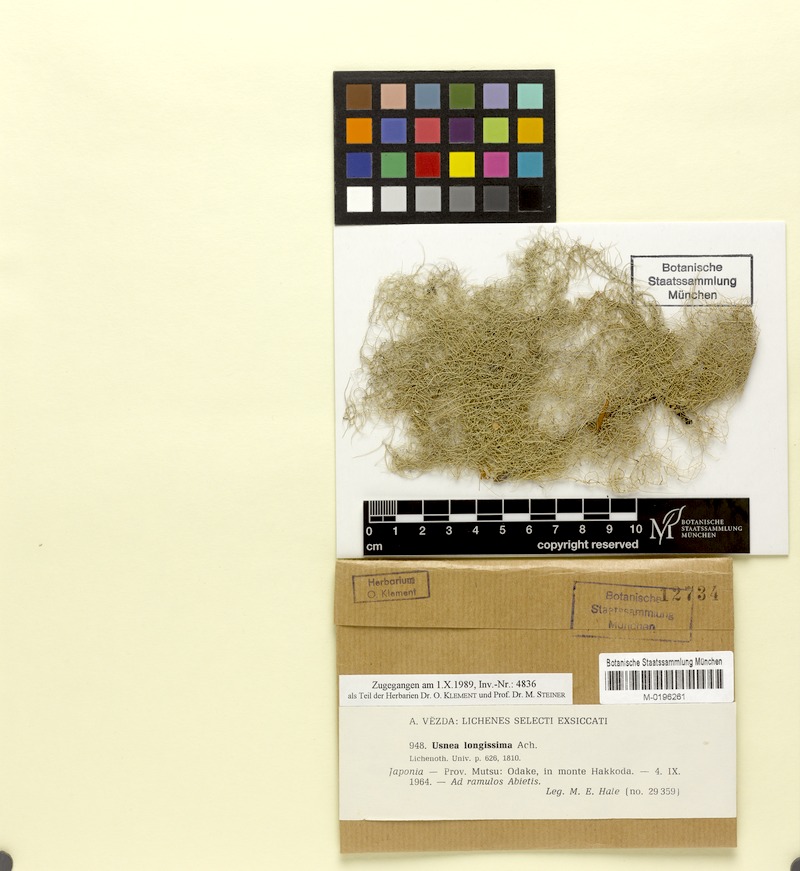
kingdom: Fungi
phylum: Ascomycota
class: Lecanoromycetes
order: Lecanorales
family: Parmeliaceae
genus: Dolichousnea
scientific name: Dolichousnea longissima
